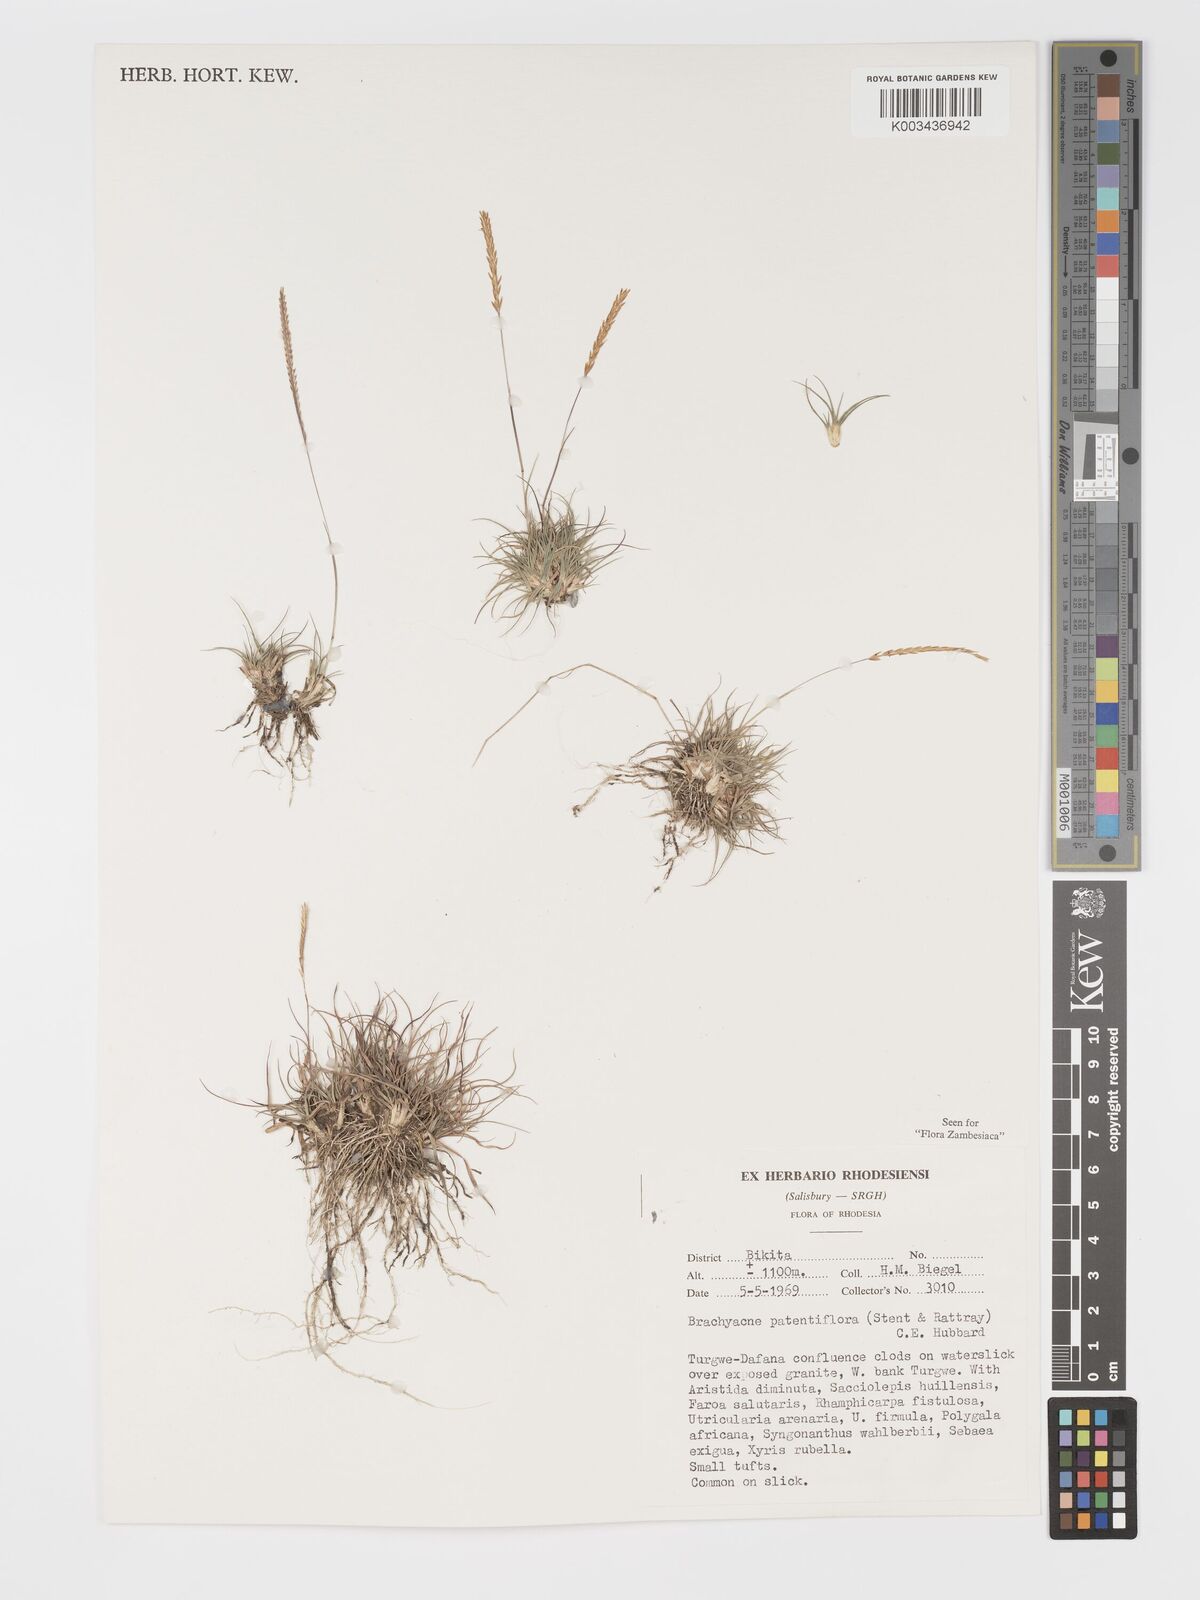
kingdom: Plantae
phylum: Tracheophyta
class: Liliopsida
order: Poales
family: Poaceae
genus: Micrachne
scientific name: Micrachne patentiflora
